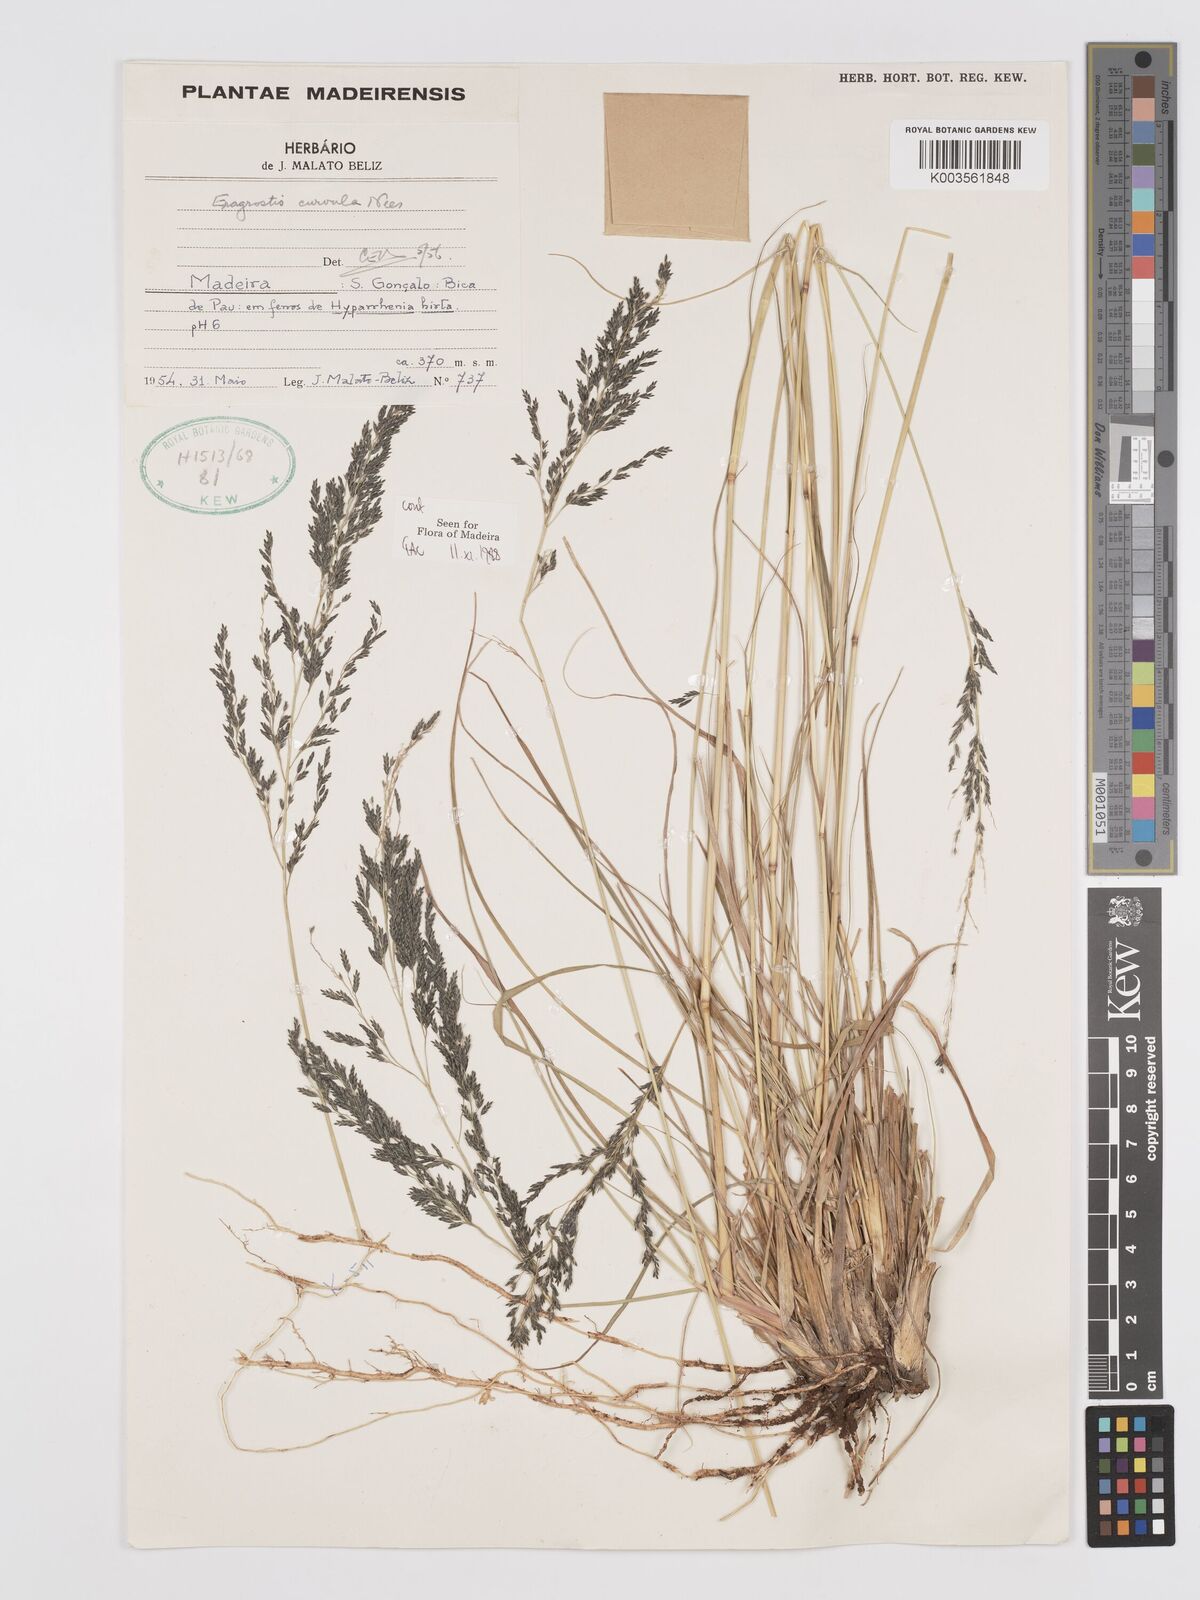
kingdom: Plantae
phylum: Tracheophyta
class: Liliopsida
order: Poales
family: Poaceae
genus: Eragrostis
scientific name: Eragrostis curvula
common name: African love-grass
